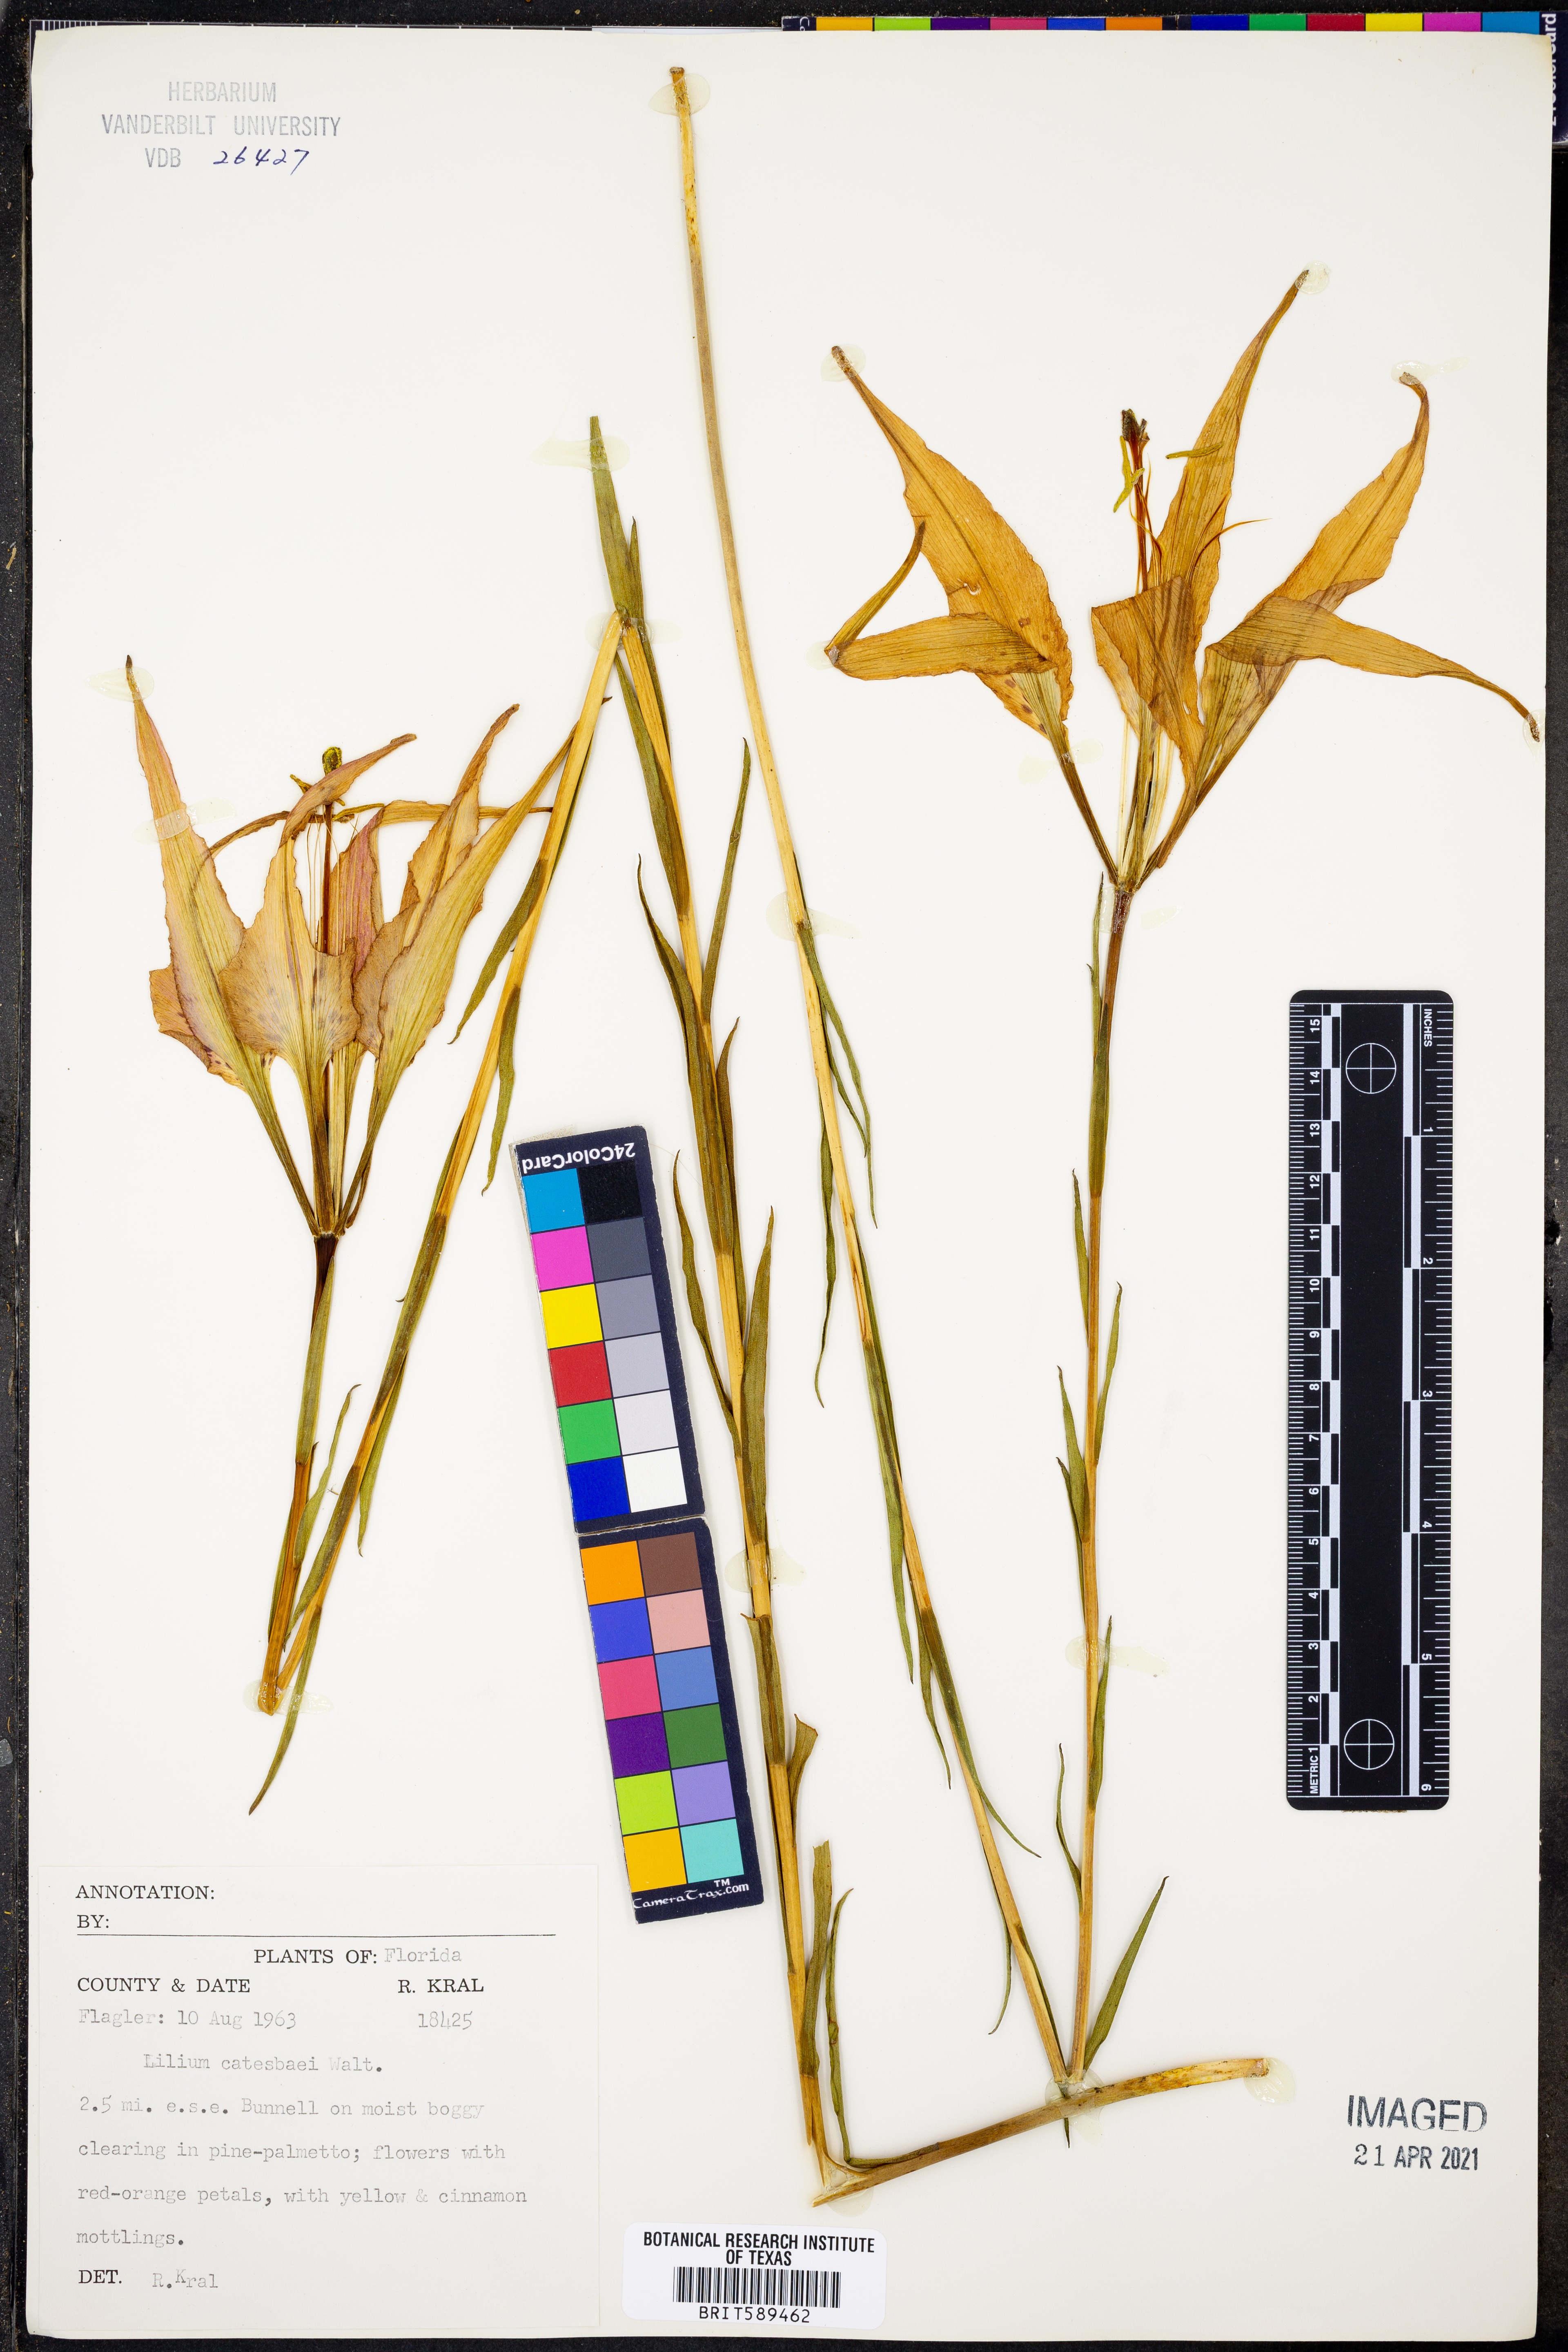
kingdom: Plantae
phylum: Tracheophyta
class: Liliopsida
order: Liliales
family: Liliaceae
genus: Lilium
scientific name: Lilium catesbaei
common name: Catesby's lily
